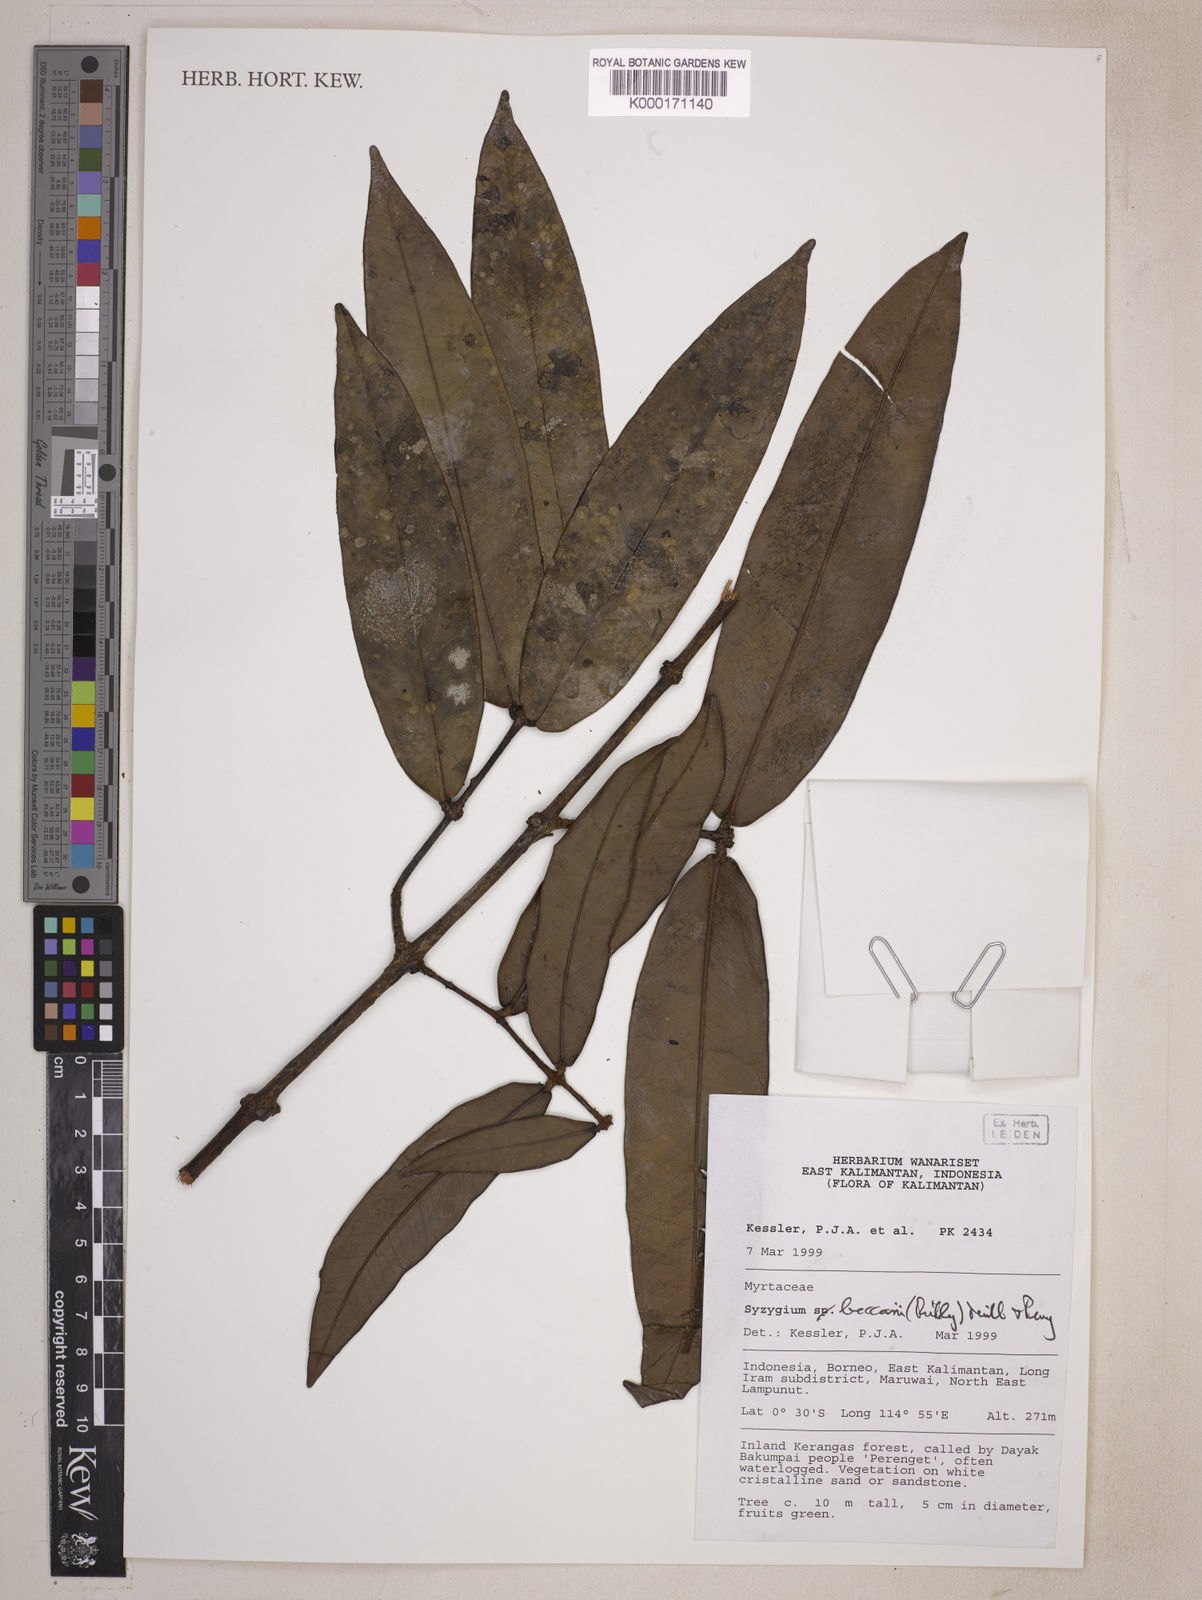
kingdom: Plantae
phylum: Tracheophyta
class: Magnoliopsida
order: Myrtales
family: Myrtaceae
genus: Syzygium
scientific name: Syzygium beccarii
